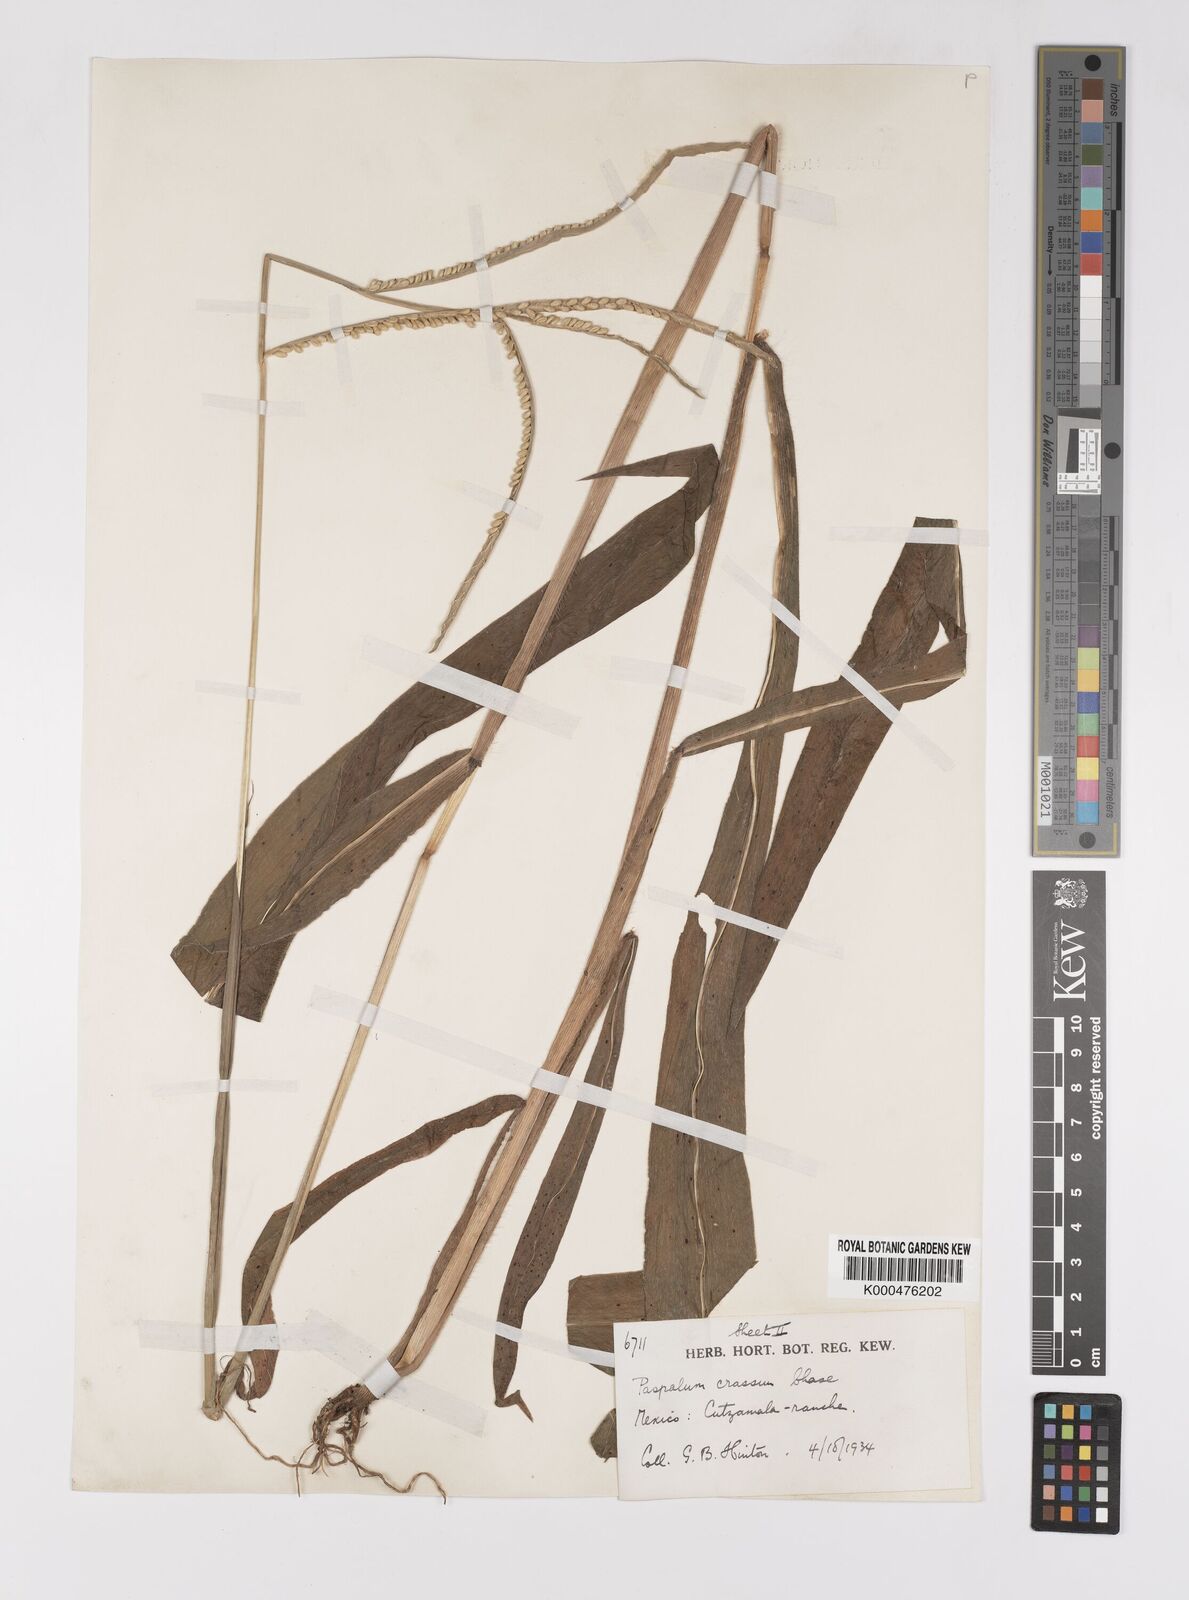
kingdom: Plantae
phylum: Tracheophyta
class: Liliopsida
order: Poales
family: Poaceae
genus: Paspalum
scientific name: Paspalum crassum
